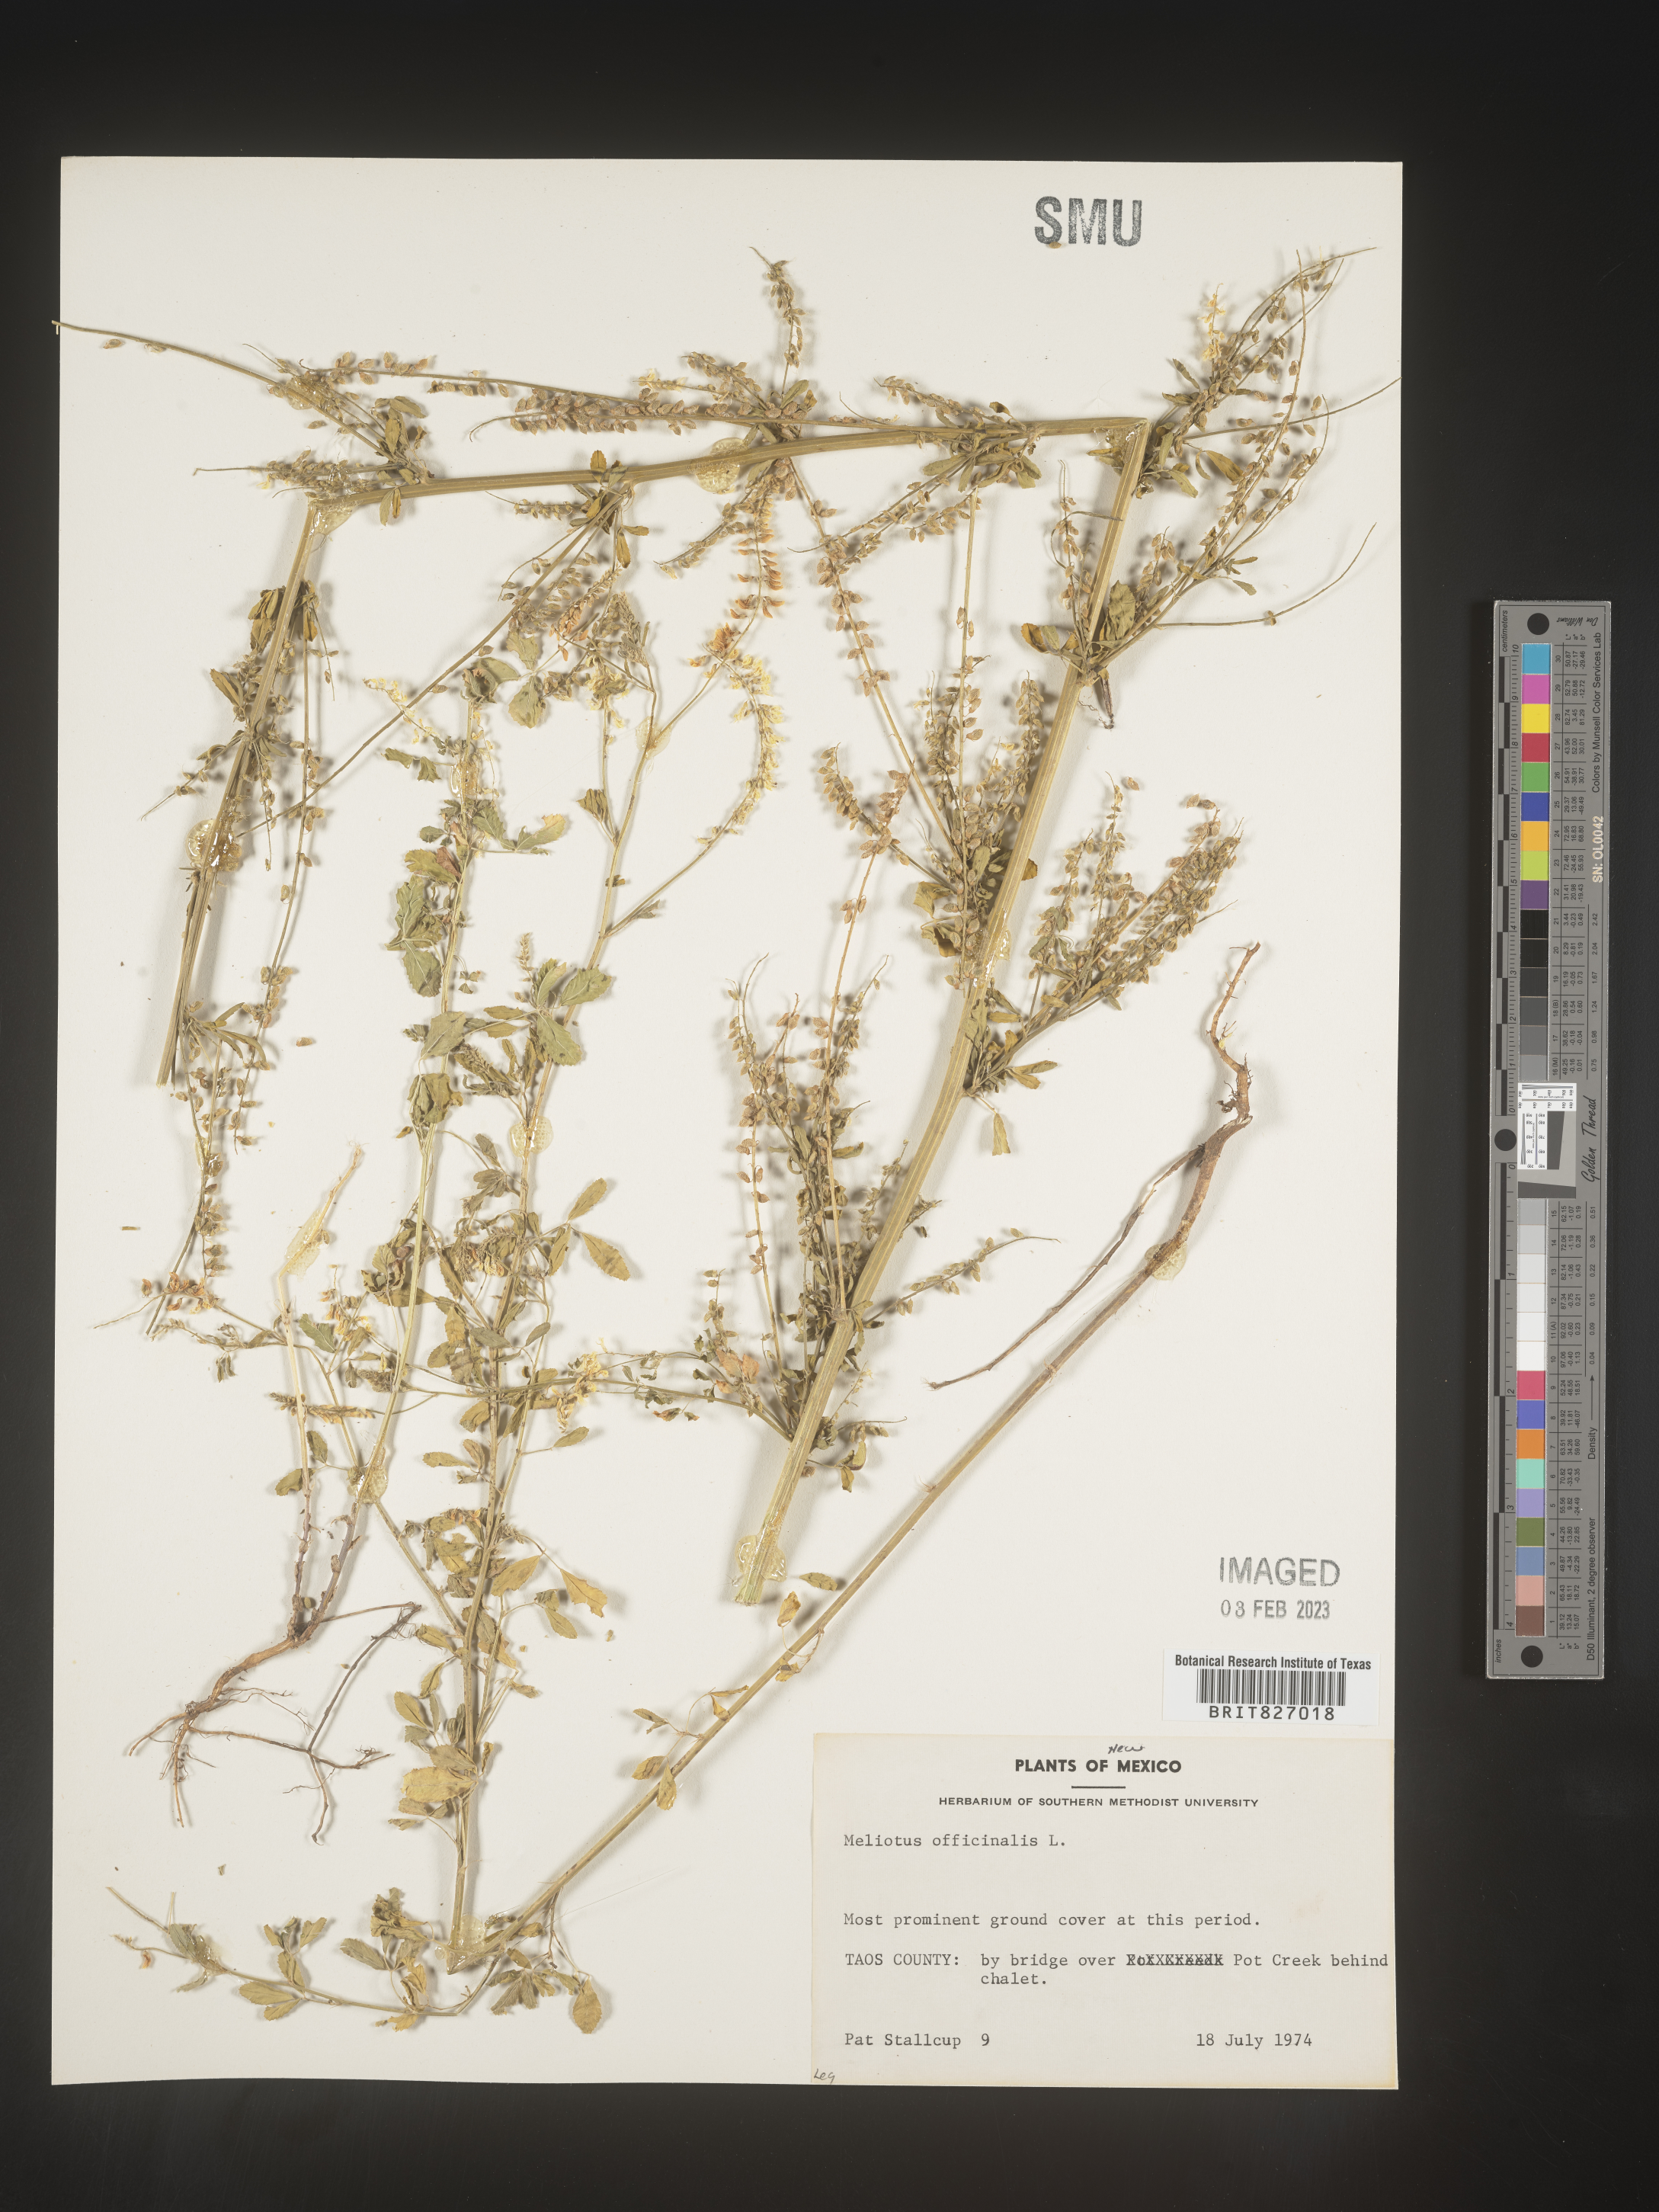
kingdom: Plantae
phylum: Tracheophyta
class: Magnoliopsida
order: Fabales
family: Fabaceae
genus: Melilotus
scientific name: Melilotus officinalis
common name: Sweetclover
